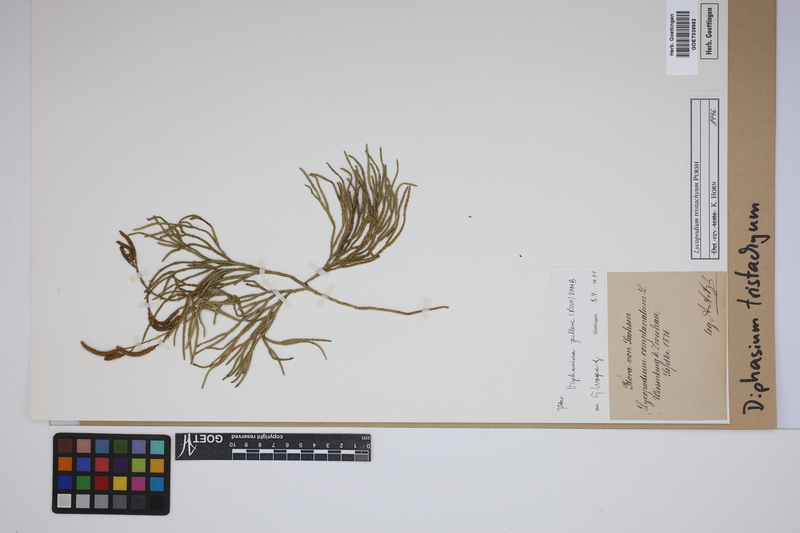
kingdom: Plantae
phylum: Tracheophyta
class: Lycopodiopsida
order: Lycopodiales
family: Lycopodiaceae
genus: Diphasiastrum
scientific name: Diphasiastrum tristachyum
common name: Blue ground-cedar
